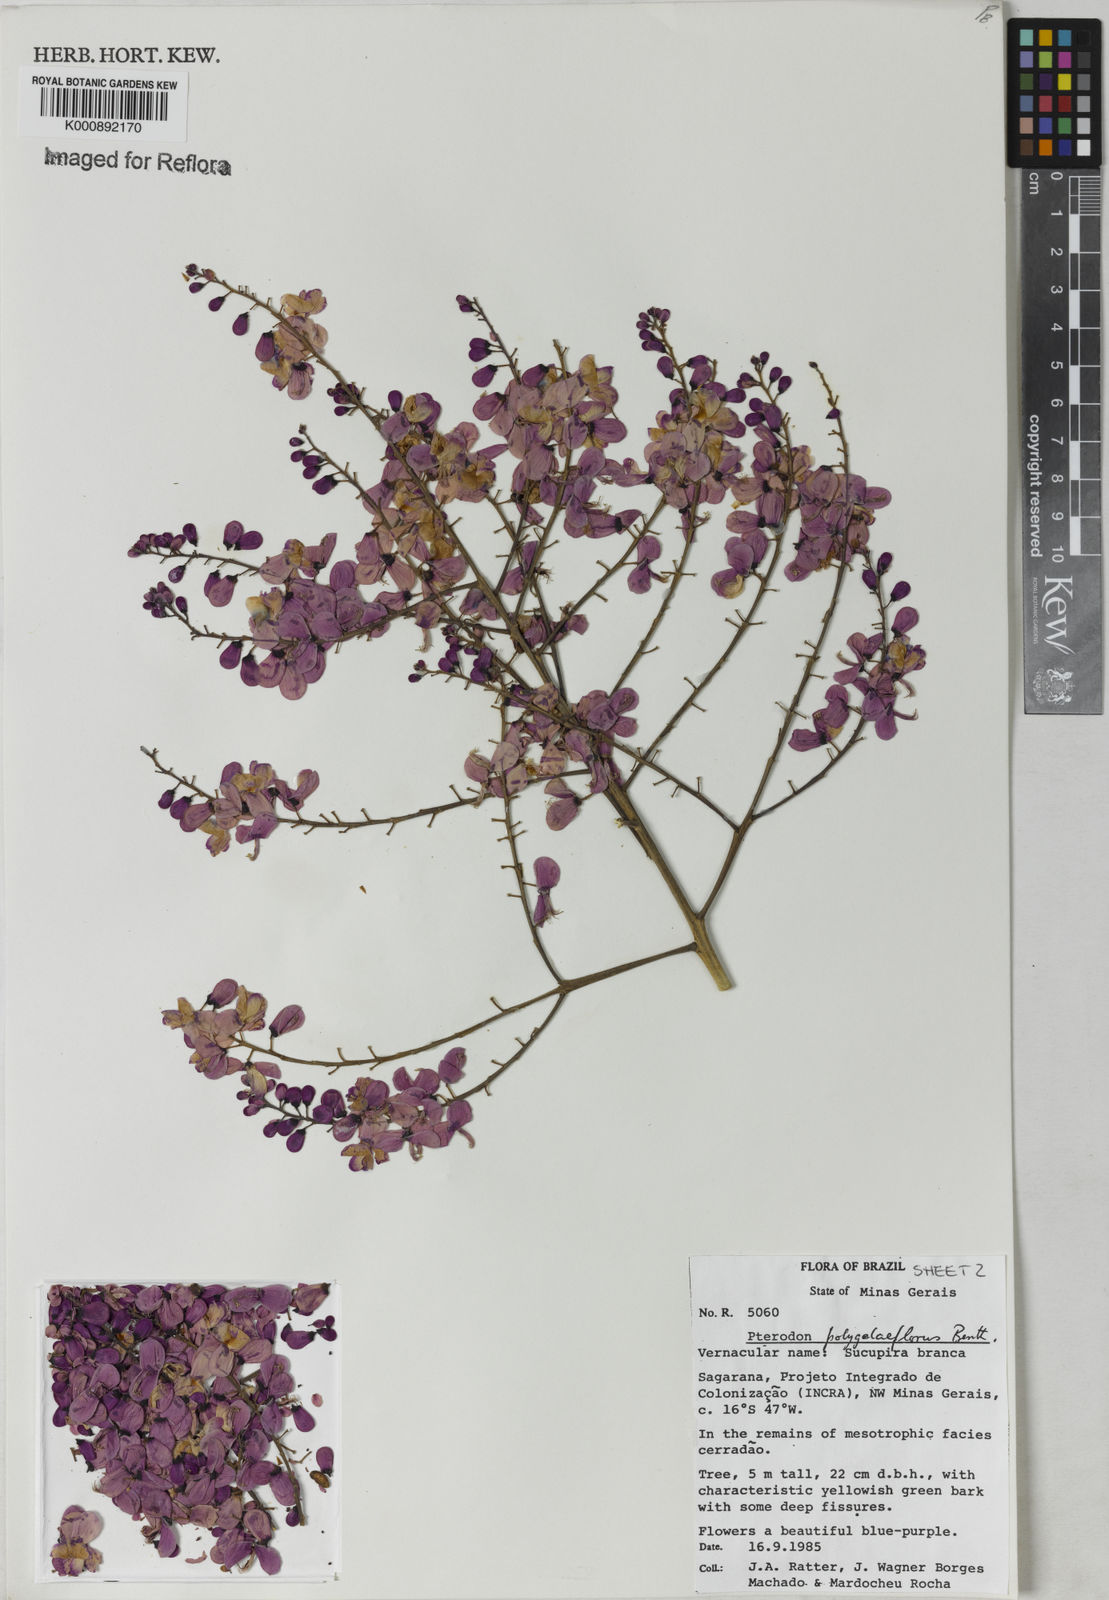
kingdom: Plantae
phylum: Tracheophyta
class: Magnoliopsida
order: Fabales
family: Fabaceae
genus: Pterodon
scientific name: Pterodon emarginatus
